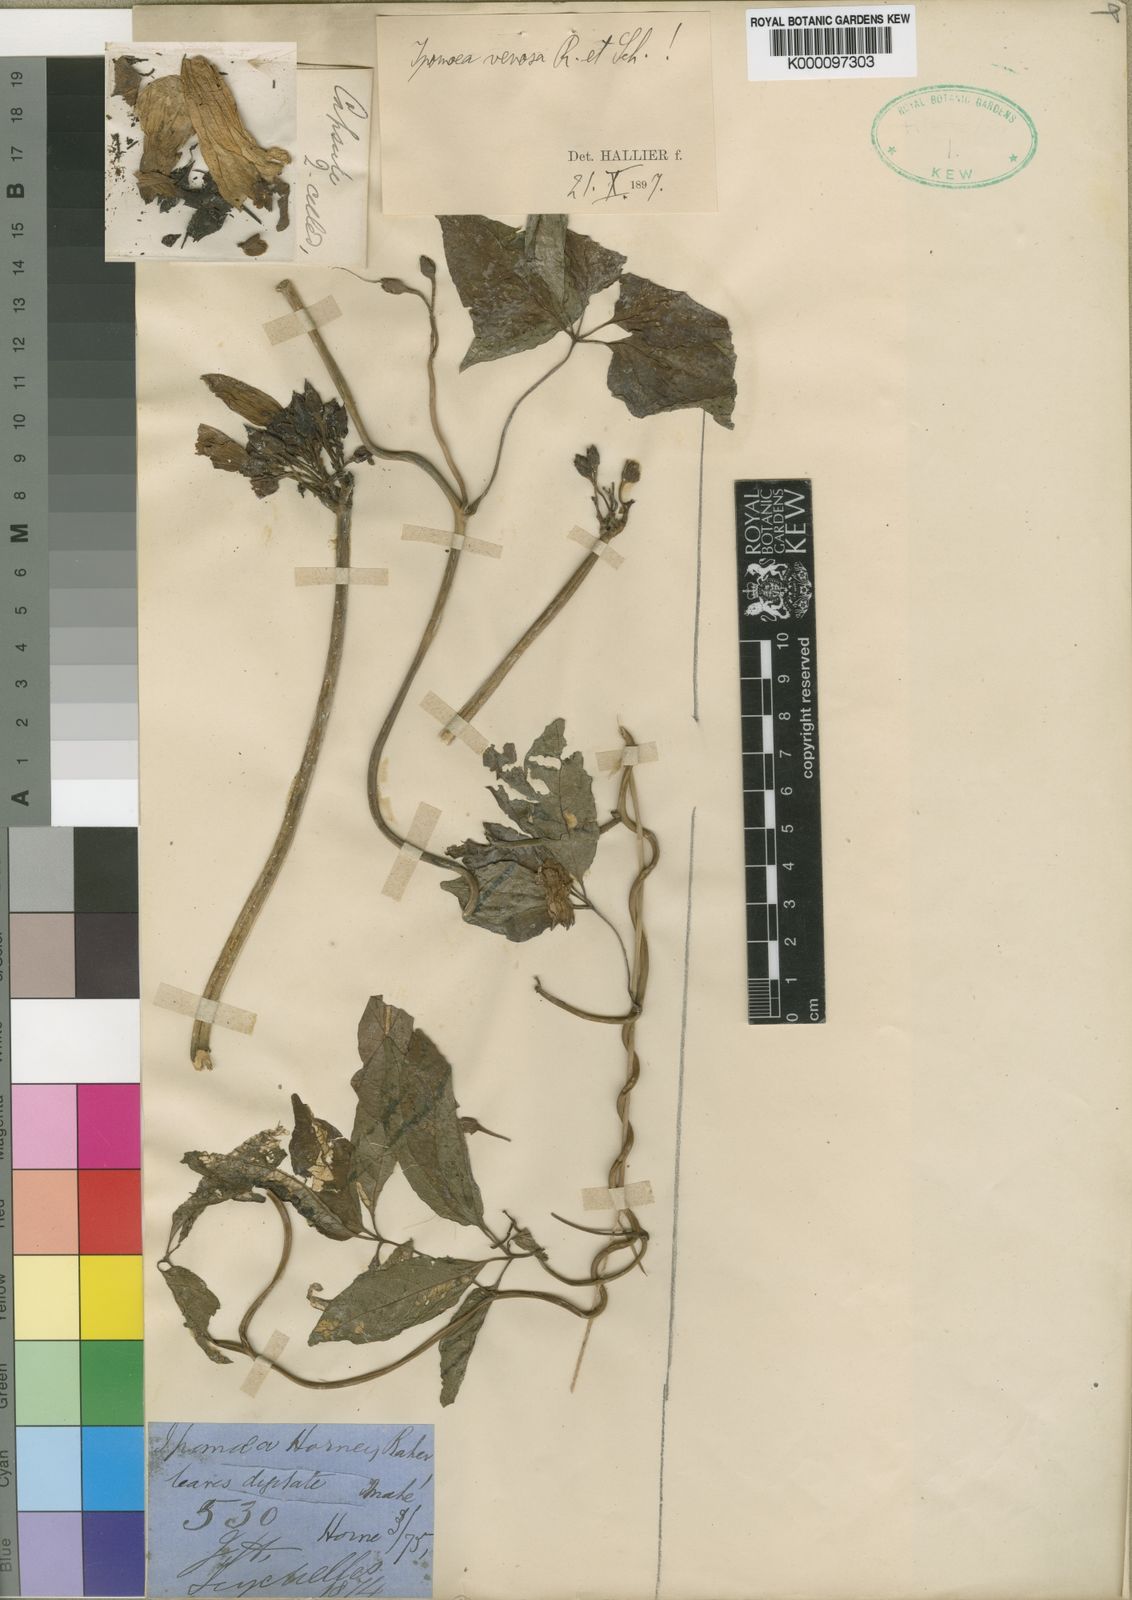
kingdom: Plantae
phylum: Tracheophyta
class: Magnoliopsida
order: Solanales
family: Convolvulaceae
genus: Ipomoea
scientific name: Ipomoea venosa
